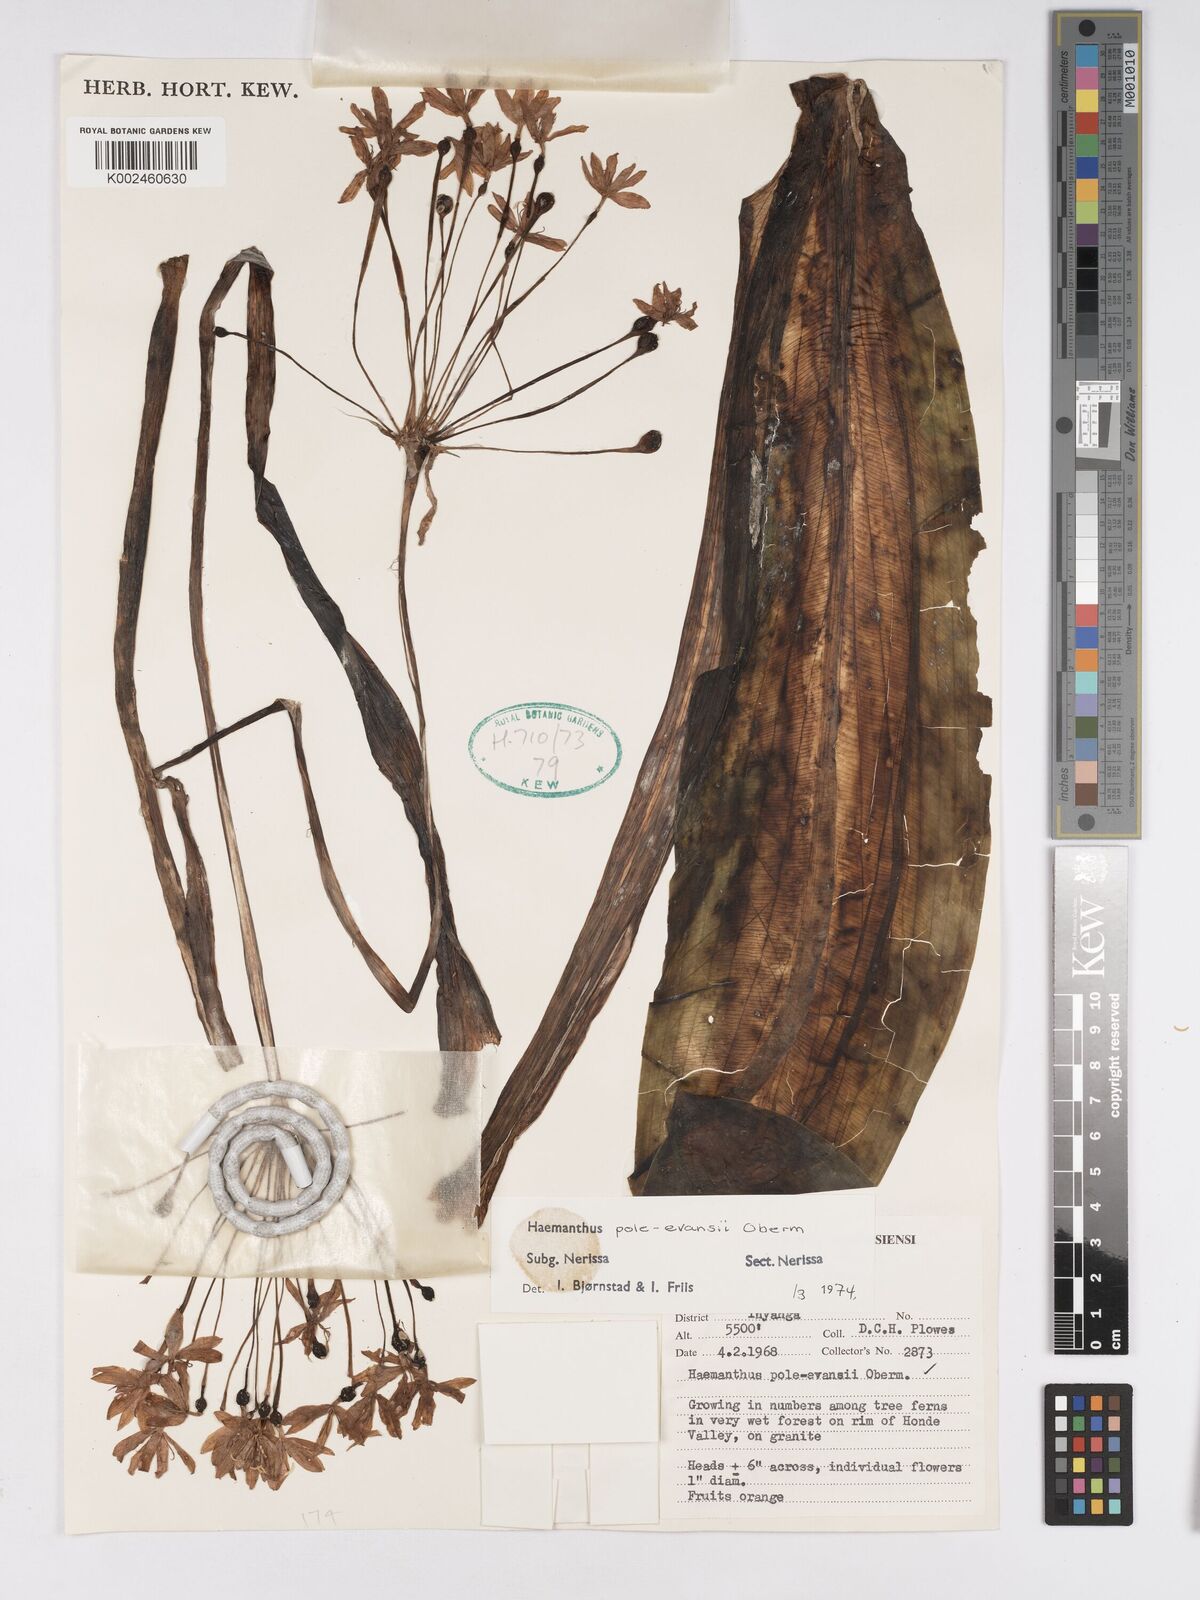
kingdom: Plantae
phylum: Tracheophyta
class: Liliopsida
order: Asparagales
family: Amaryllidaceae
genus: Scadoxus
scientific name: Scadoxus pole-evansii
